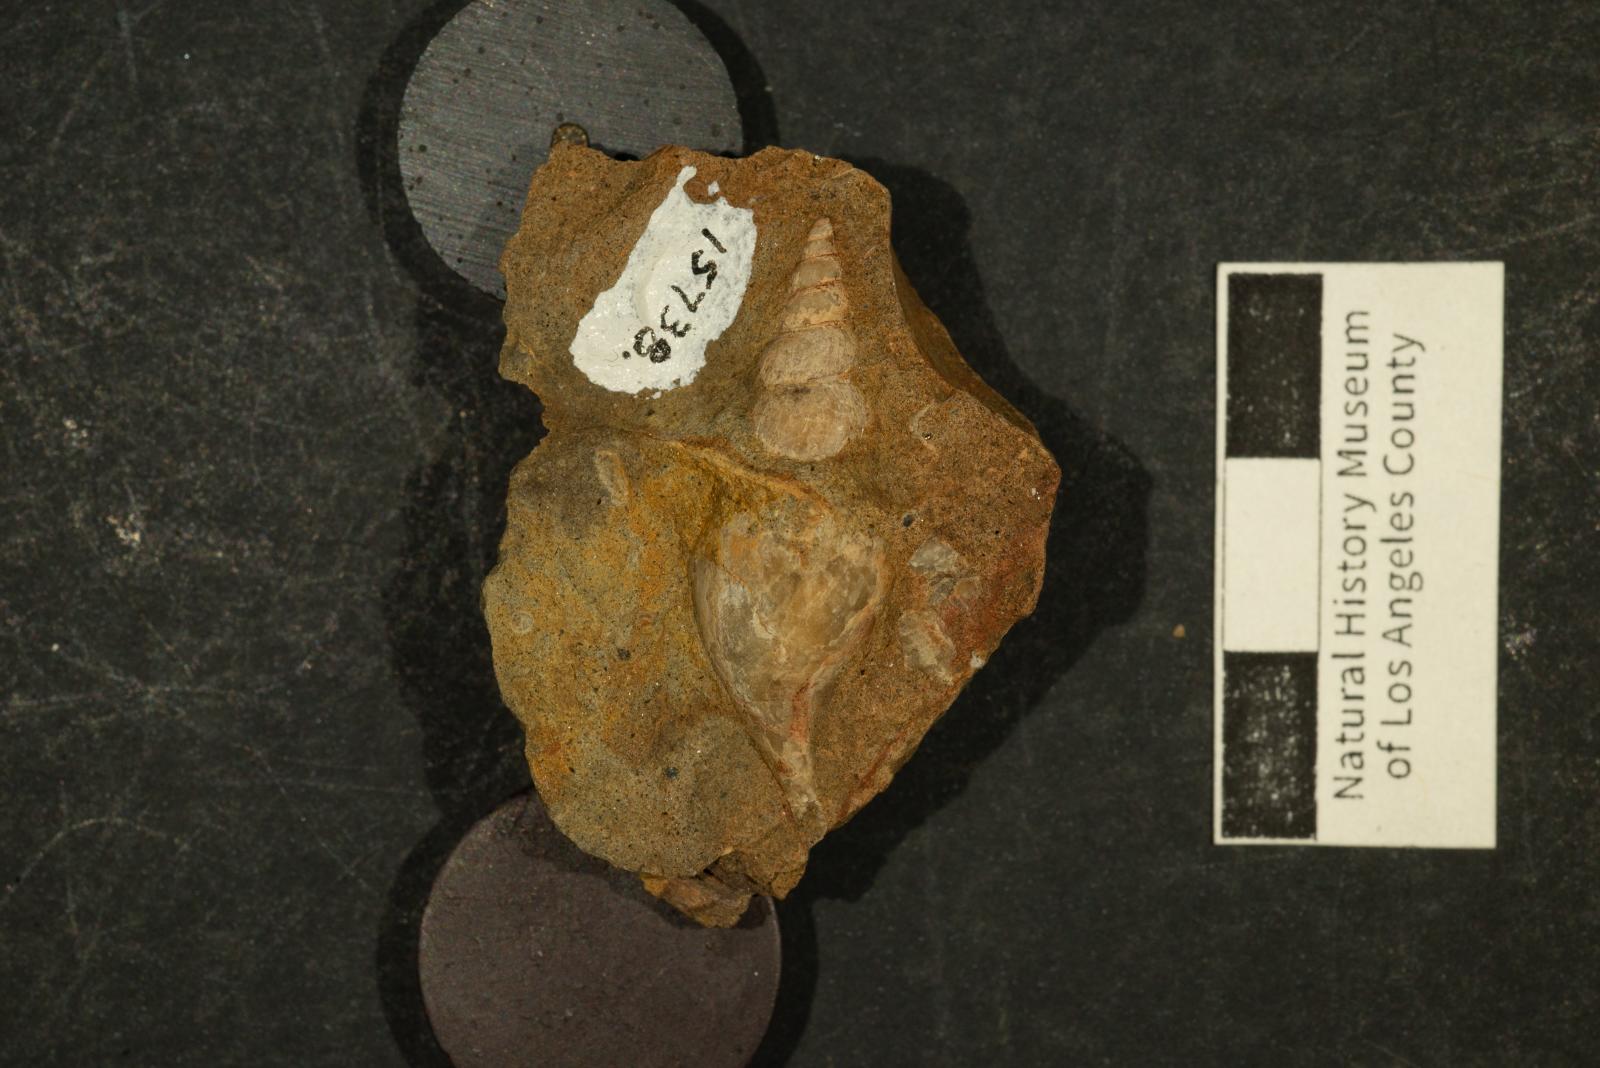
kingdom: Animalia
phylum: Mollusca
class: Gastropoda
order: Littorinimorpha
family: Aporrhaidae
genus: Latiala
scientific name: Latiala Alaria nodosa
